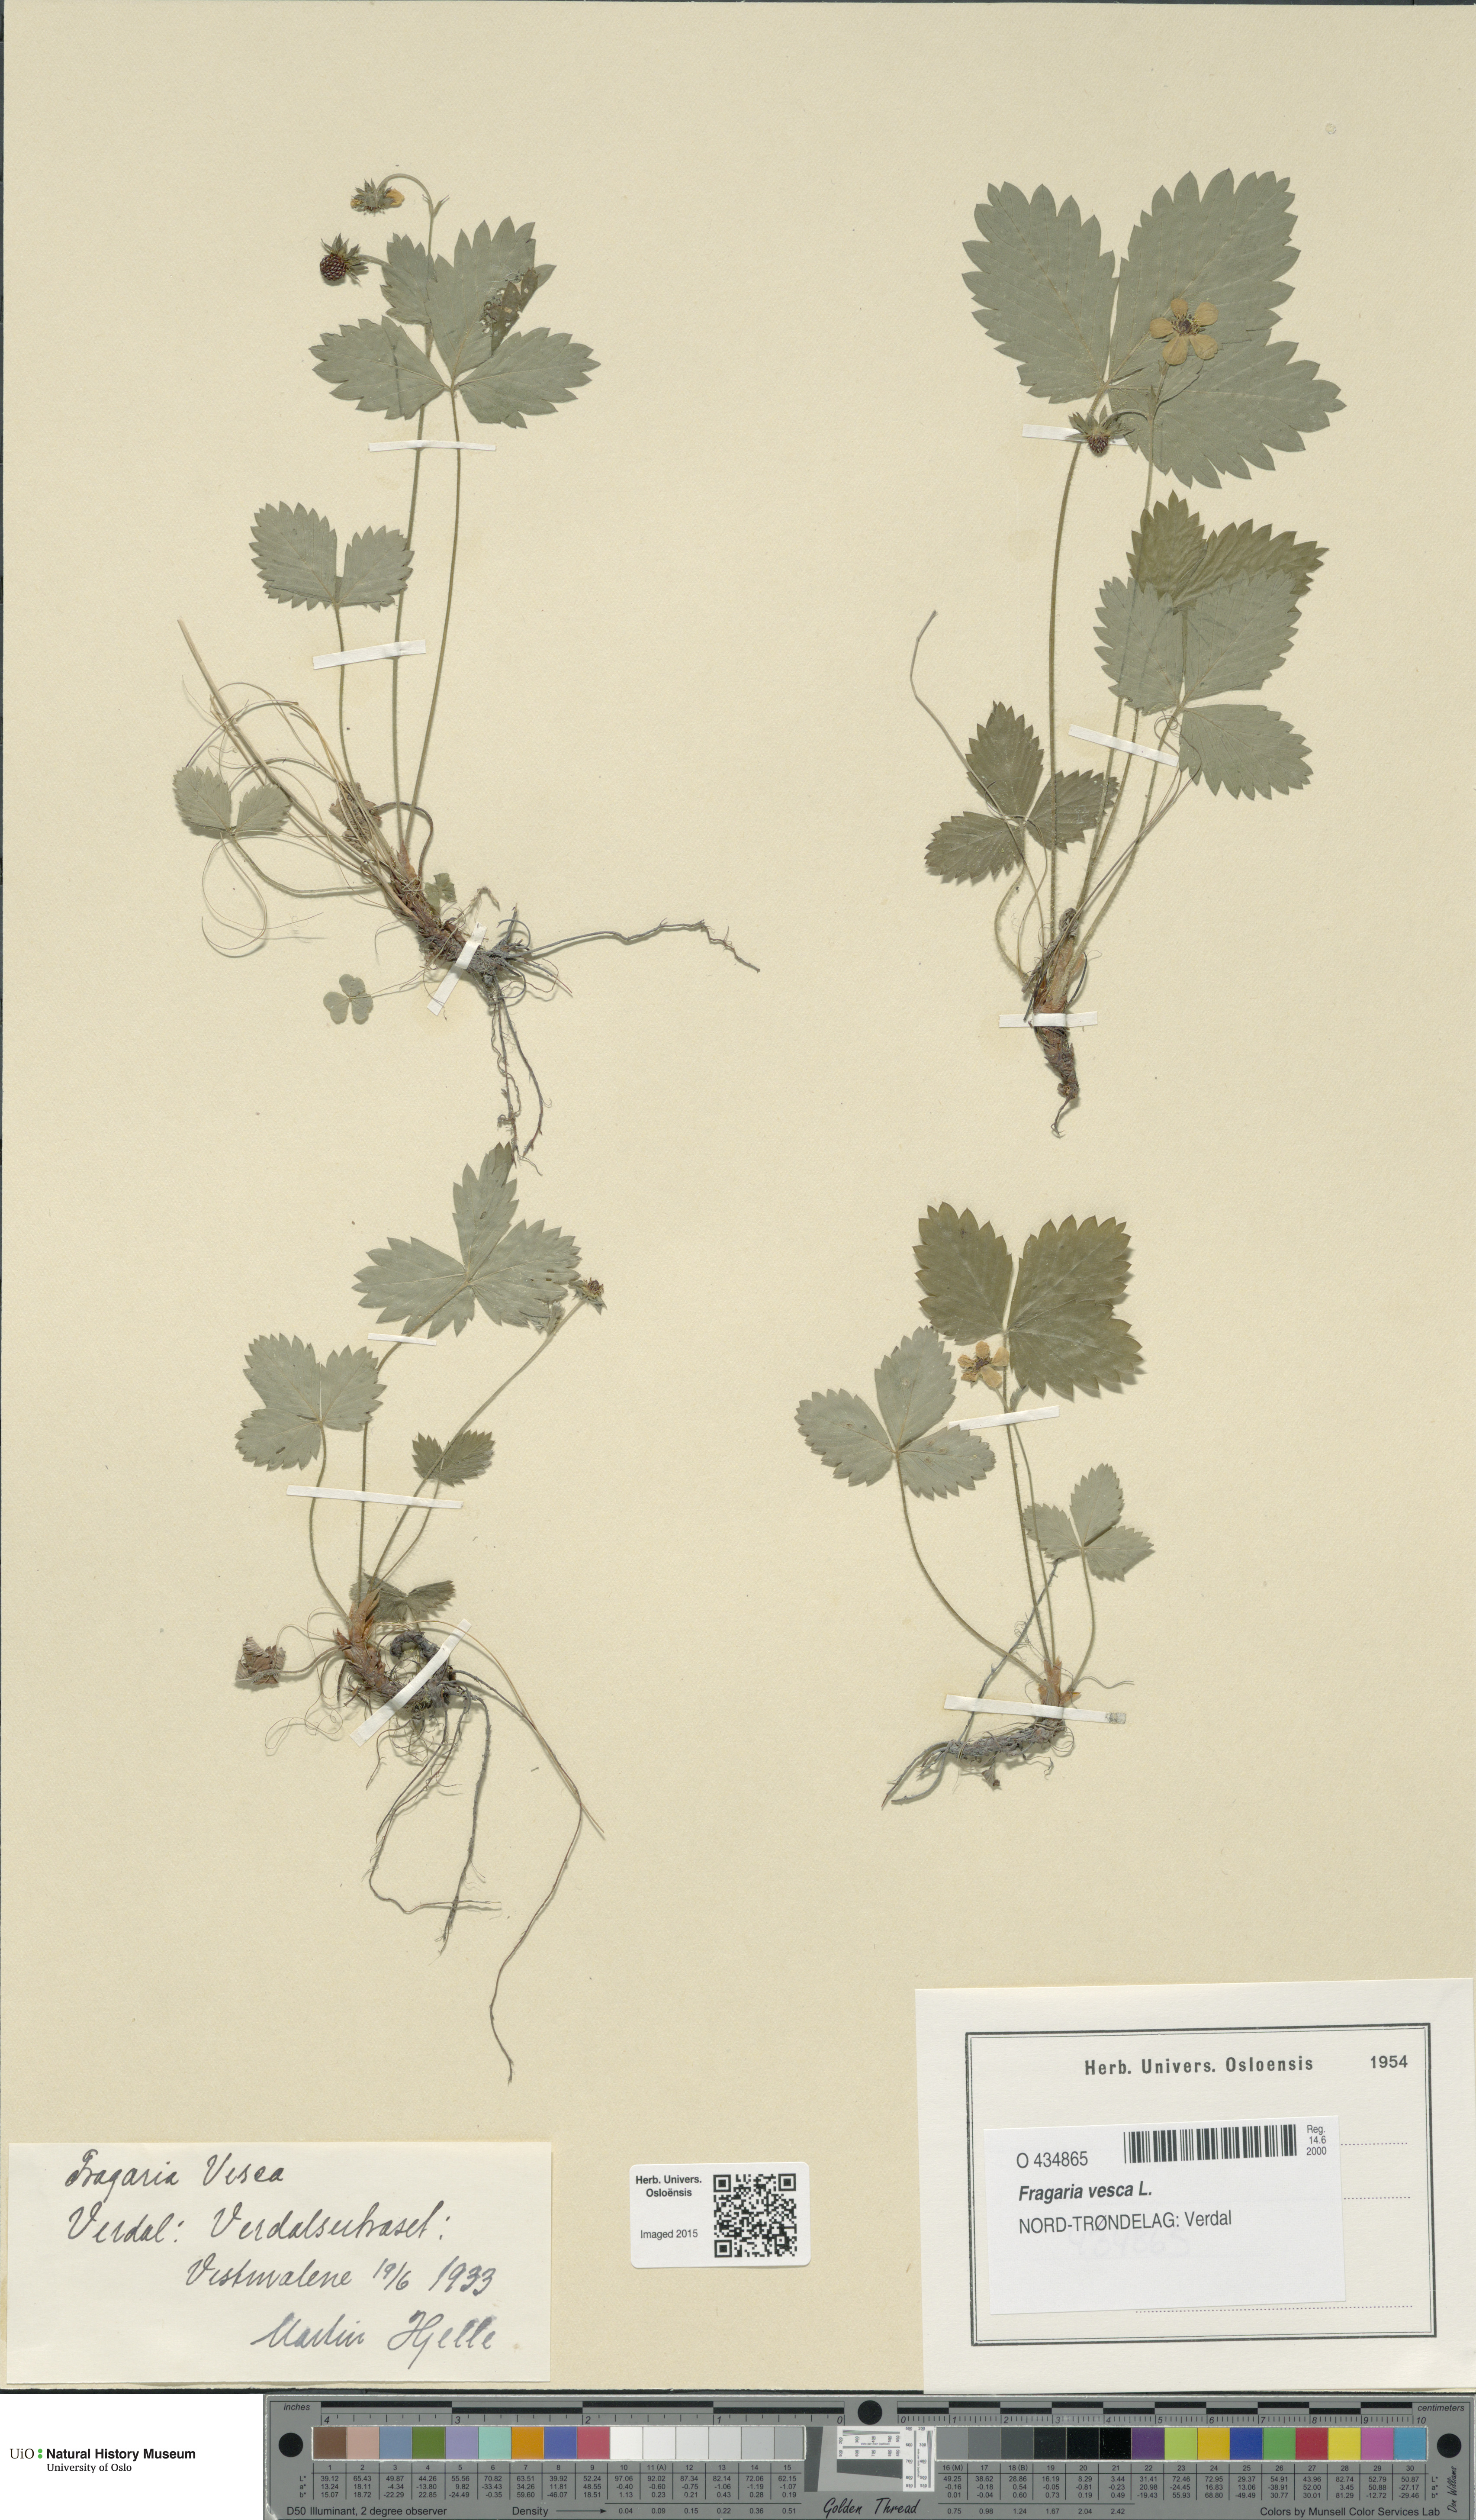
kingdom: Plantae
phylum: Tracheophyta
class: Magnoliopsida
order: Rosales
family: Rosaceae
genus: Fragaria
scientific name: Fragaria vesca
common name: Wild strawberry
